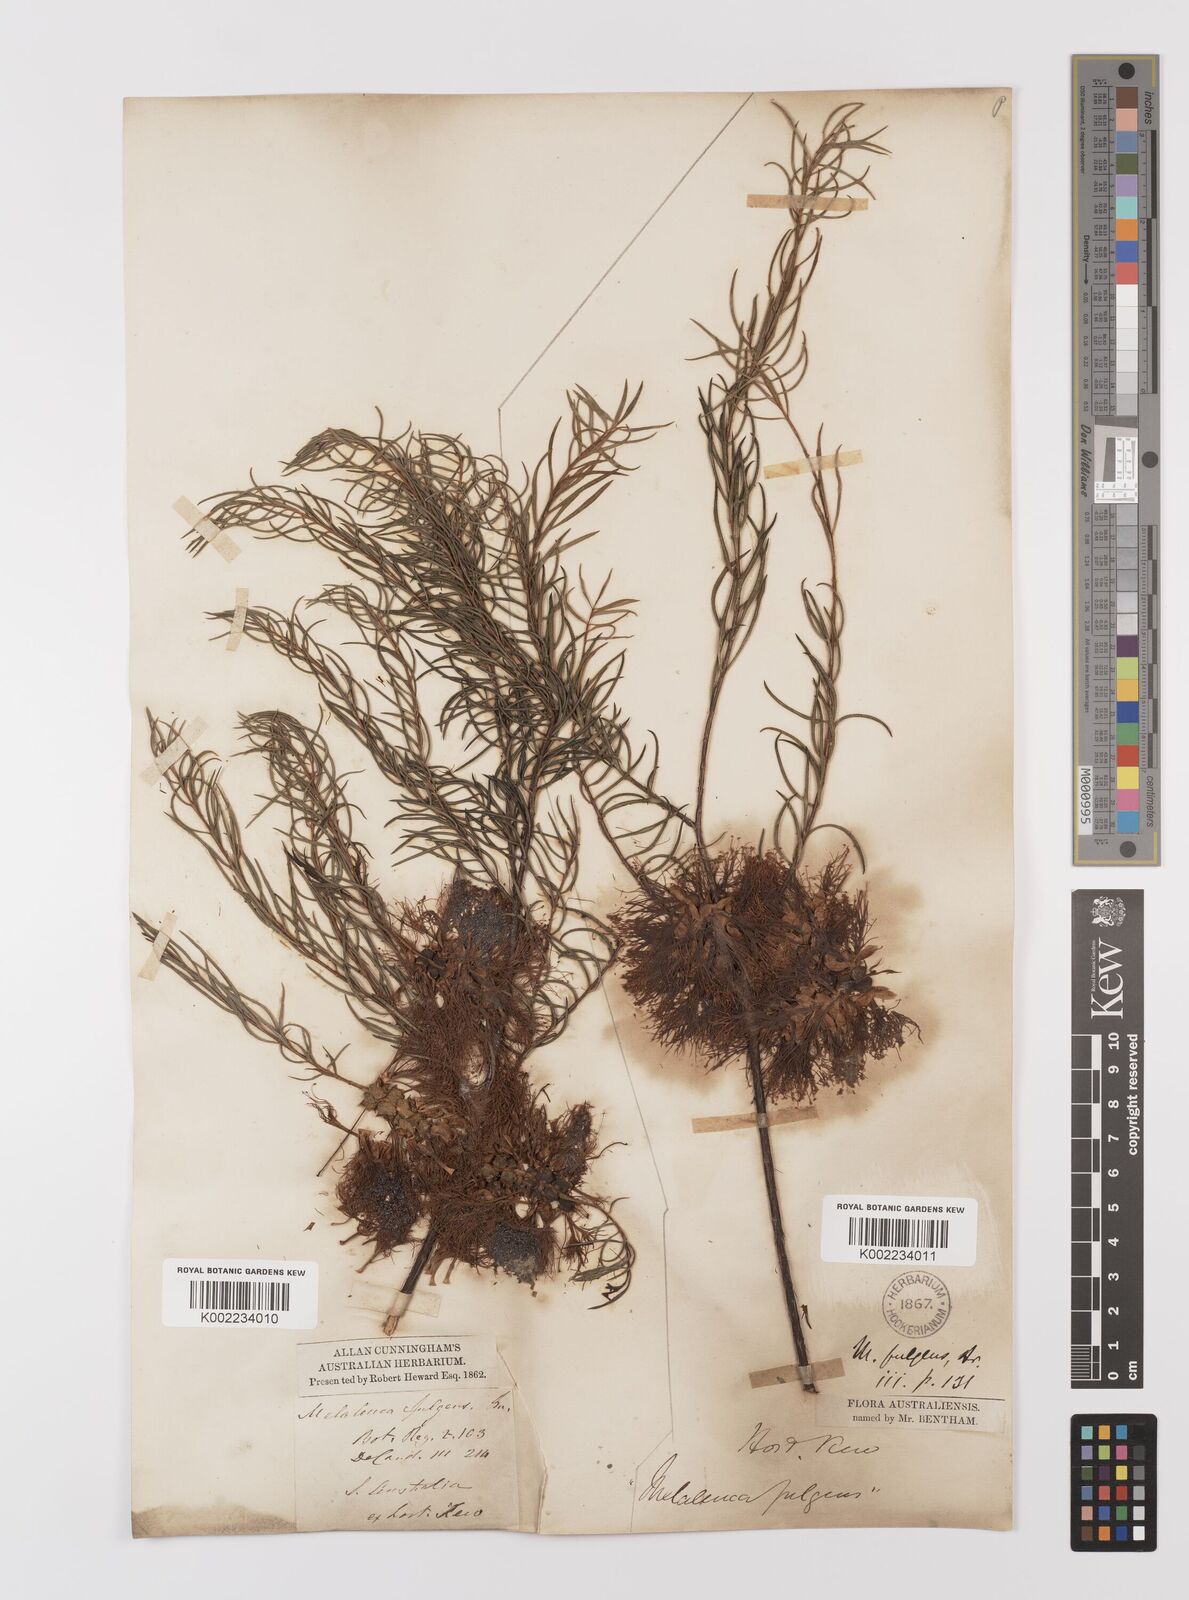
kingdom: Plantae
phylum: Tracheophyta
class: Magnoliopsida
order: Myrtales
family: Myrtaceae
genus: Melaleuca
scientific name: Melaleuca fulgens
